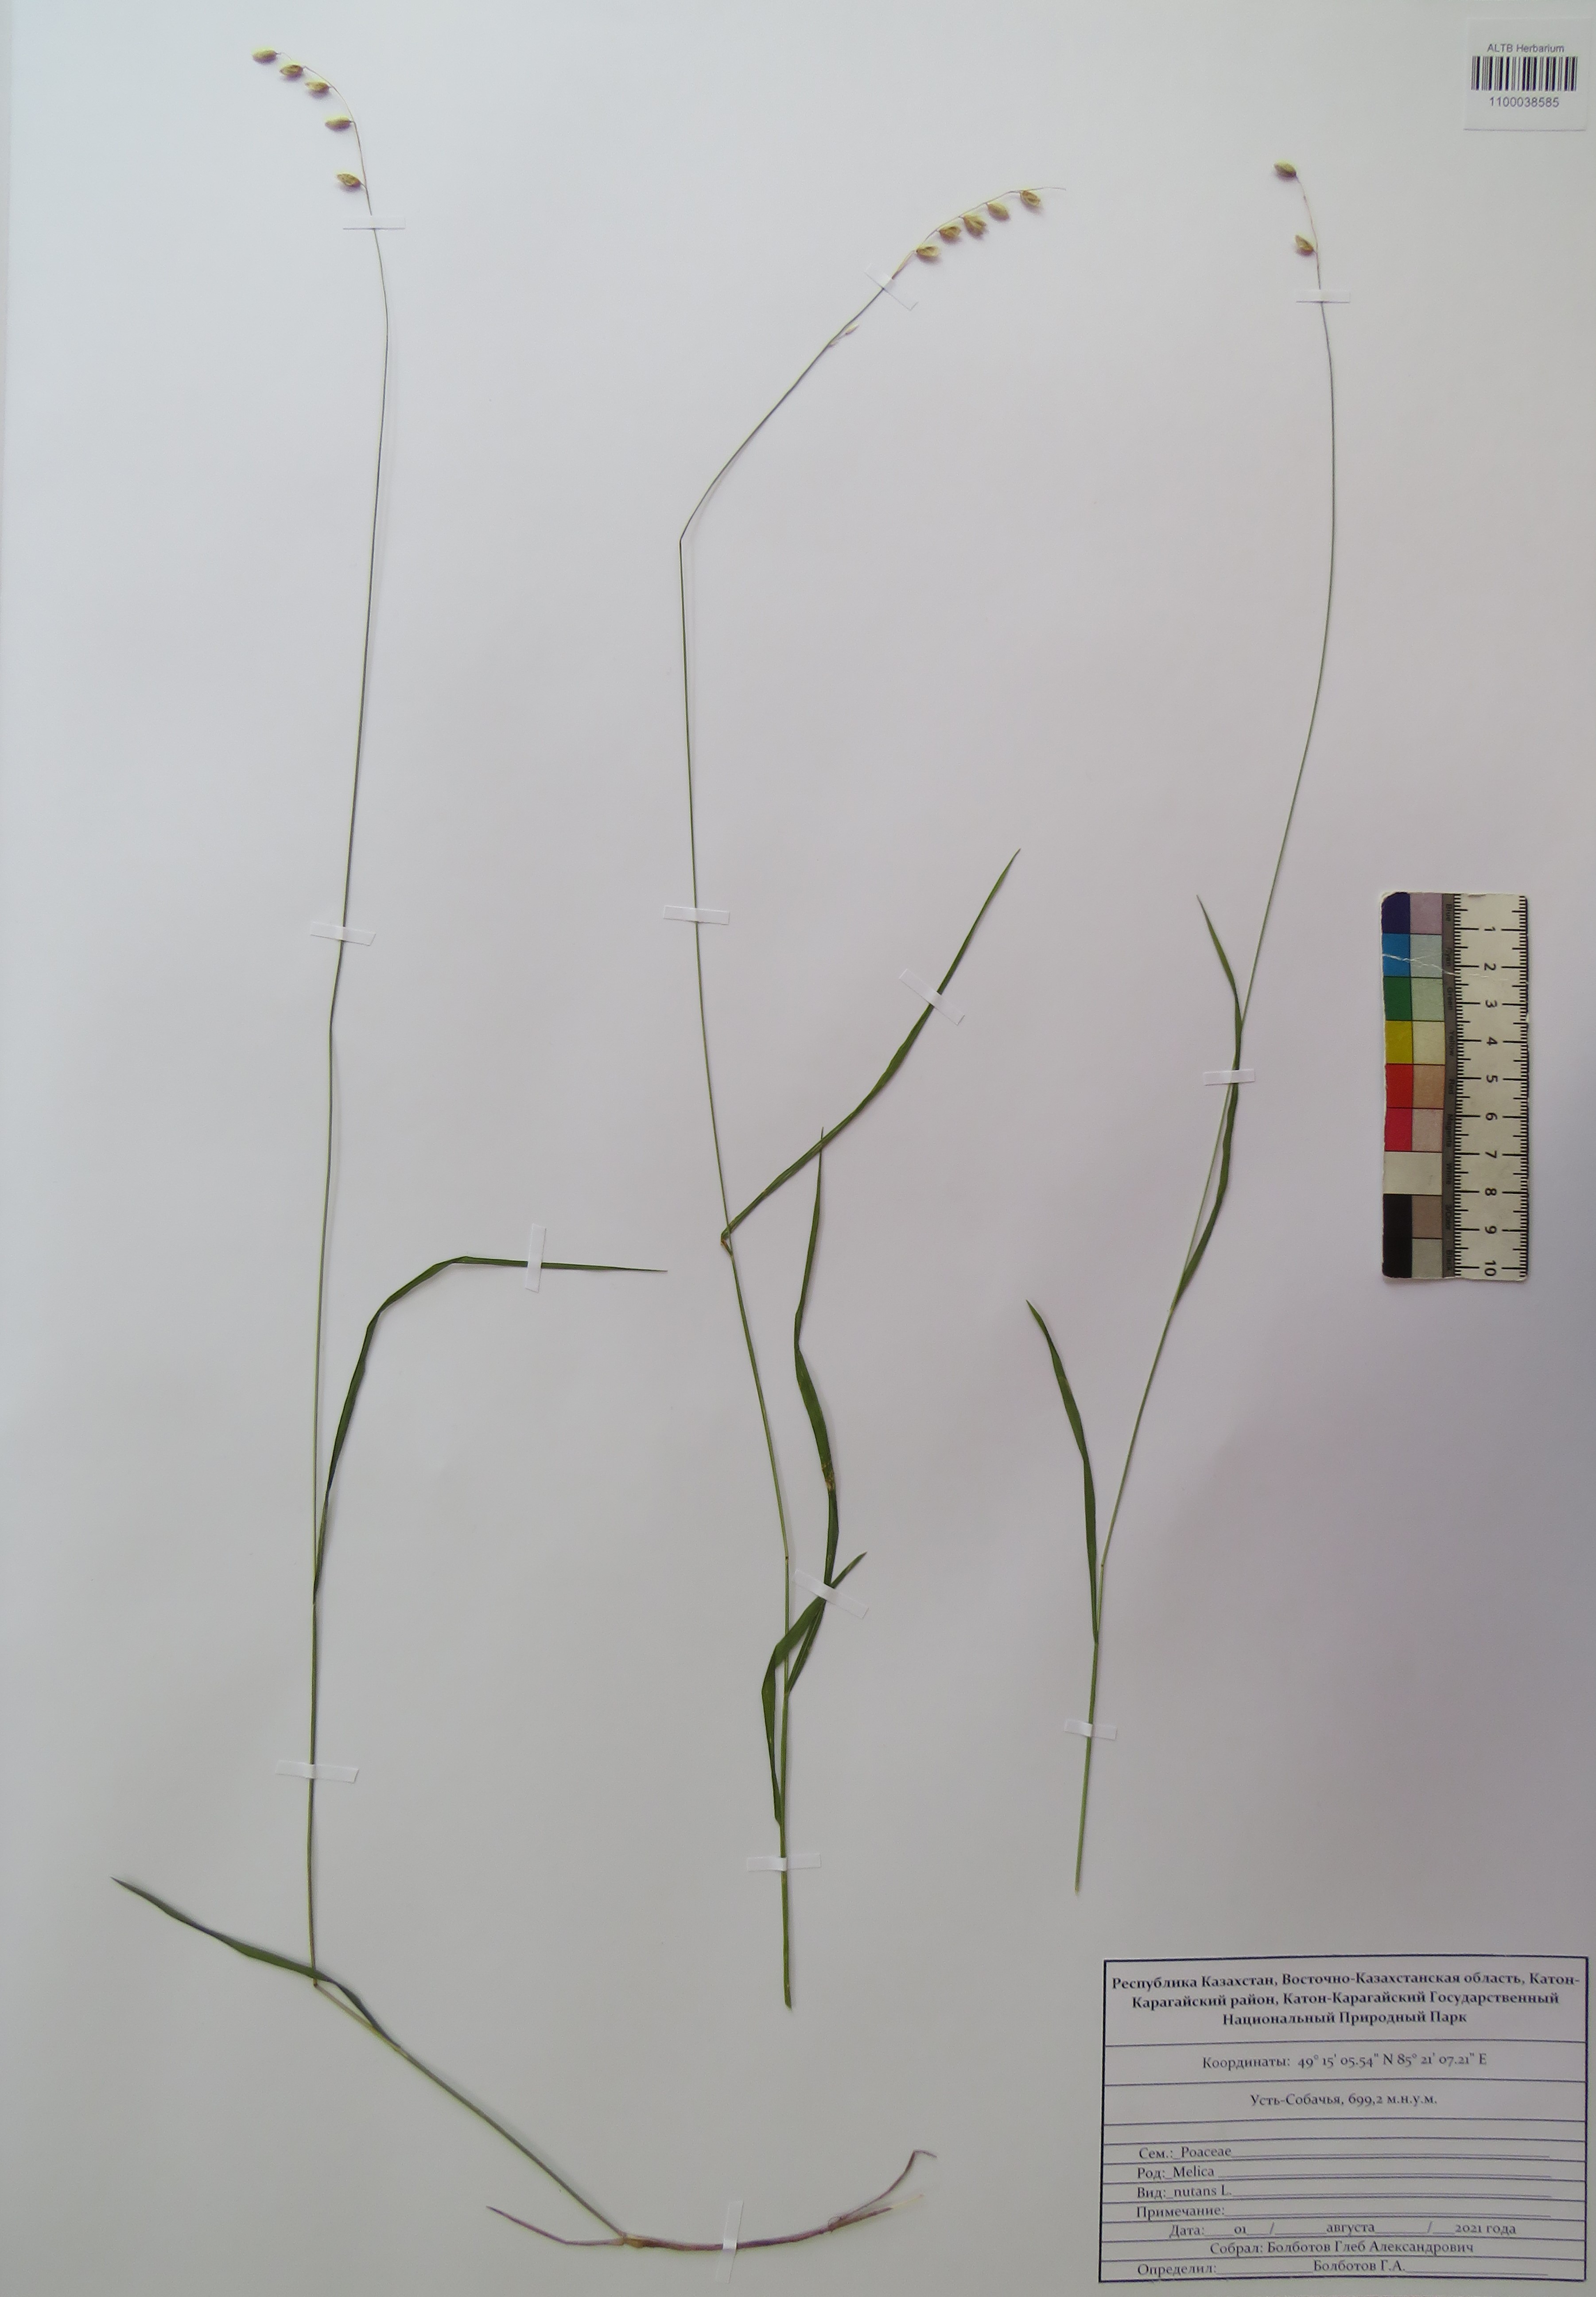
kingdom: Plantae
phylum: Tracheophyta
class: Liliopsida
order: Poales
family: Poaceae
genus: Melica
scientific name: Melica nutans
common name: Mountain melick
